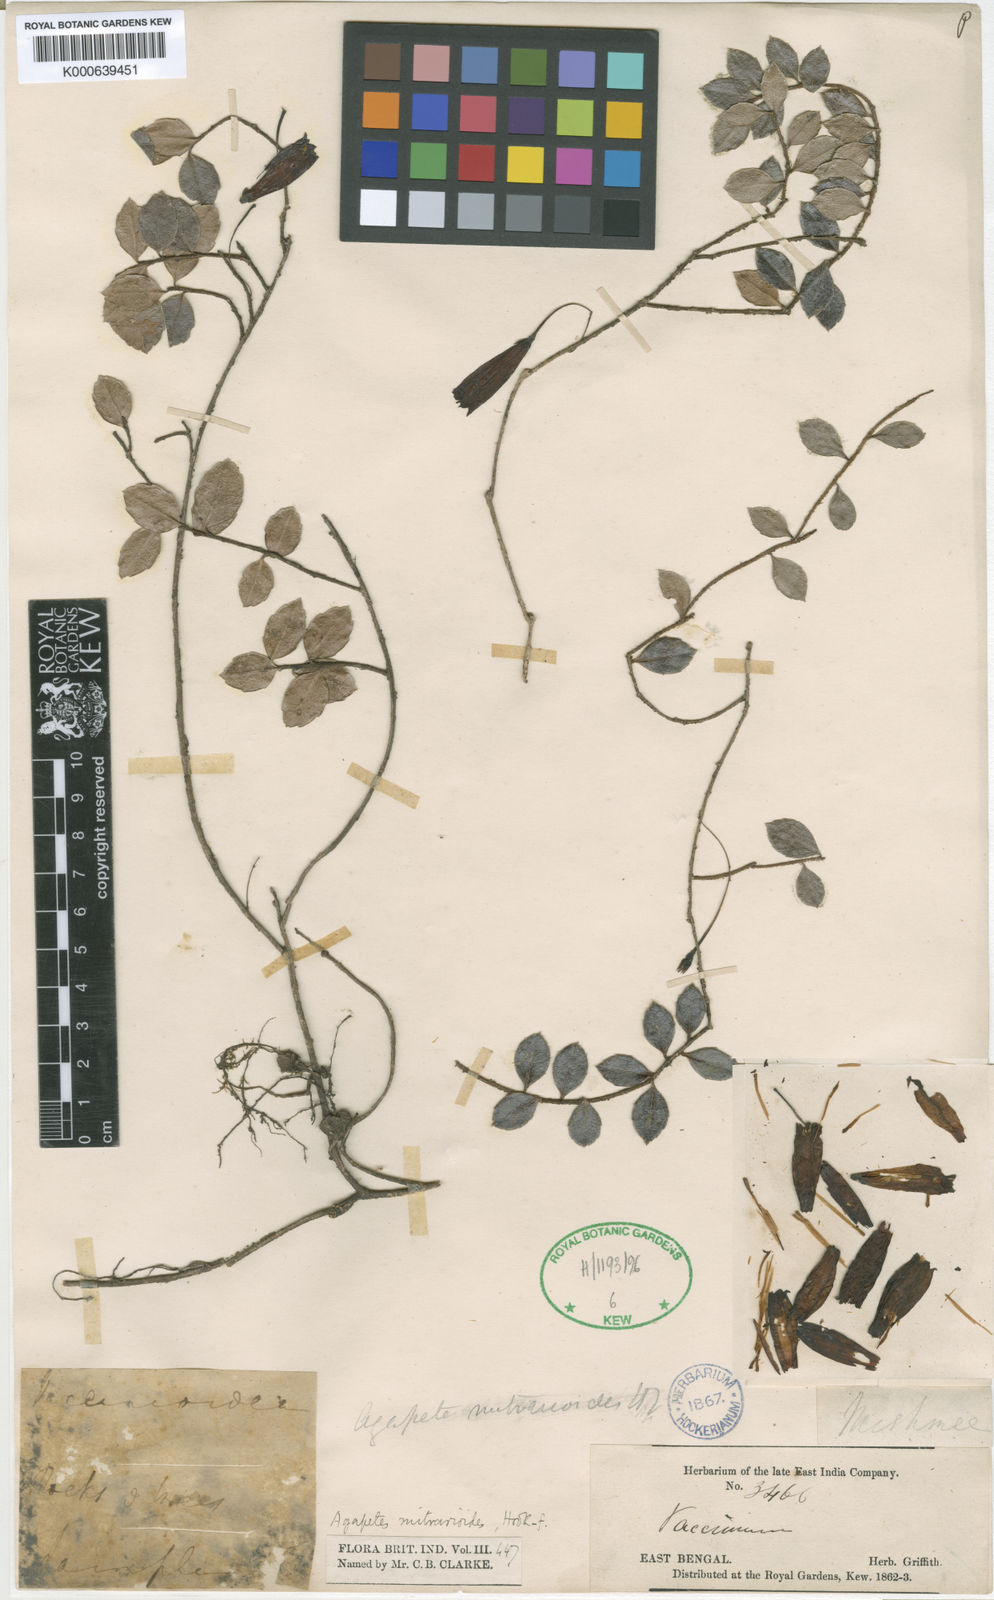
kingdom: Plantae
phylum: Tracheophyta
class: Magnoliopsida
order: Ericales
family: Ericaceae
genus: Agapetes
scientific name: Agapetes mitrarioides
